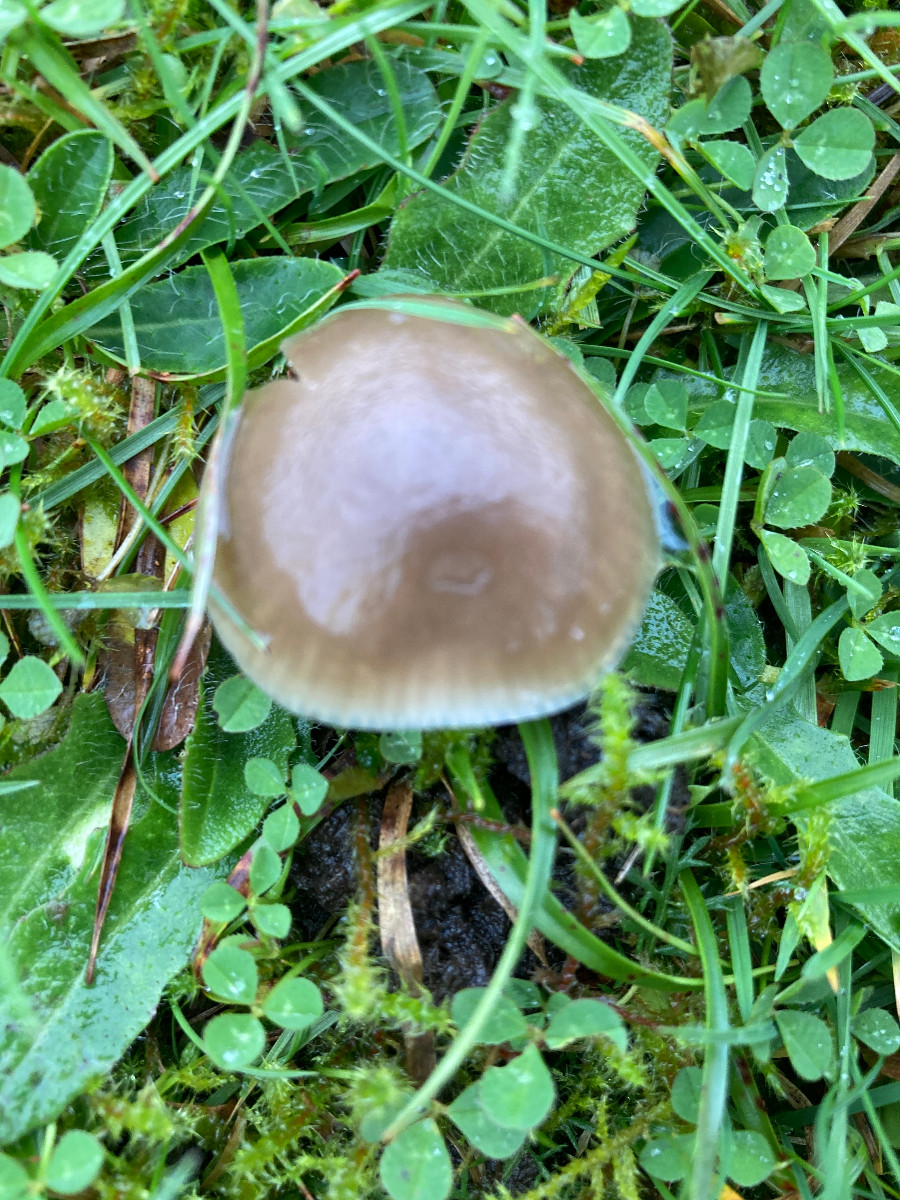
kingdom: Fungi
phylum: Basidiomycota
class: Agaricomycetes
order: Agaricales
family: Hygrophoraceae
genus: Gliophorus
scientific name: Gliophorus irrigatus
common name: slimet vokshat
